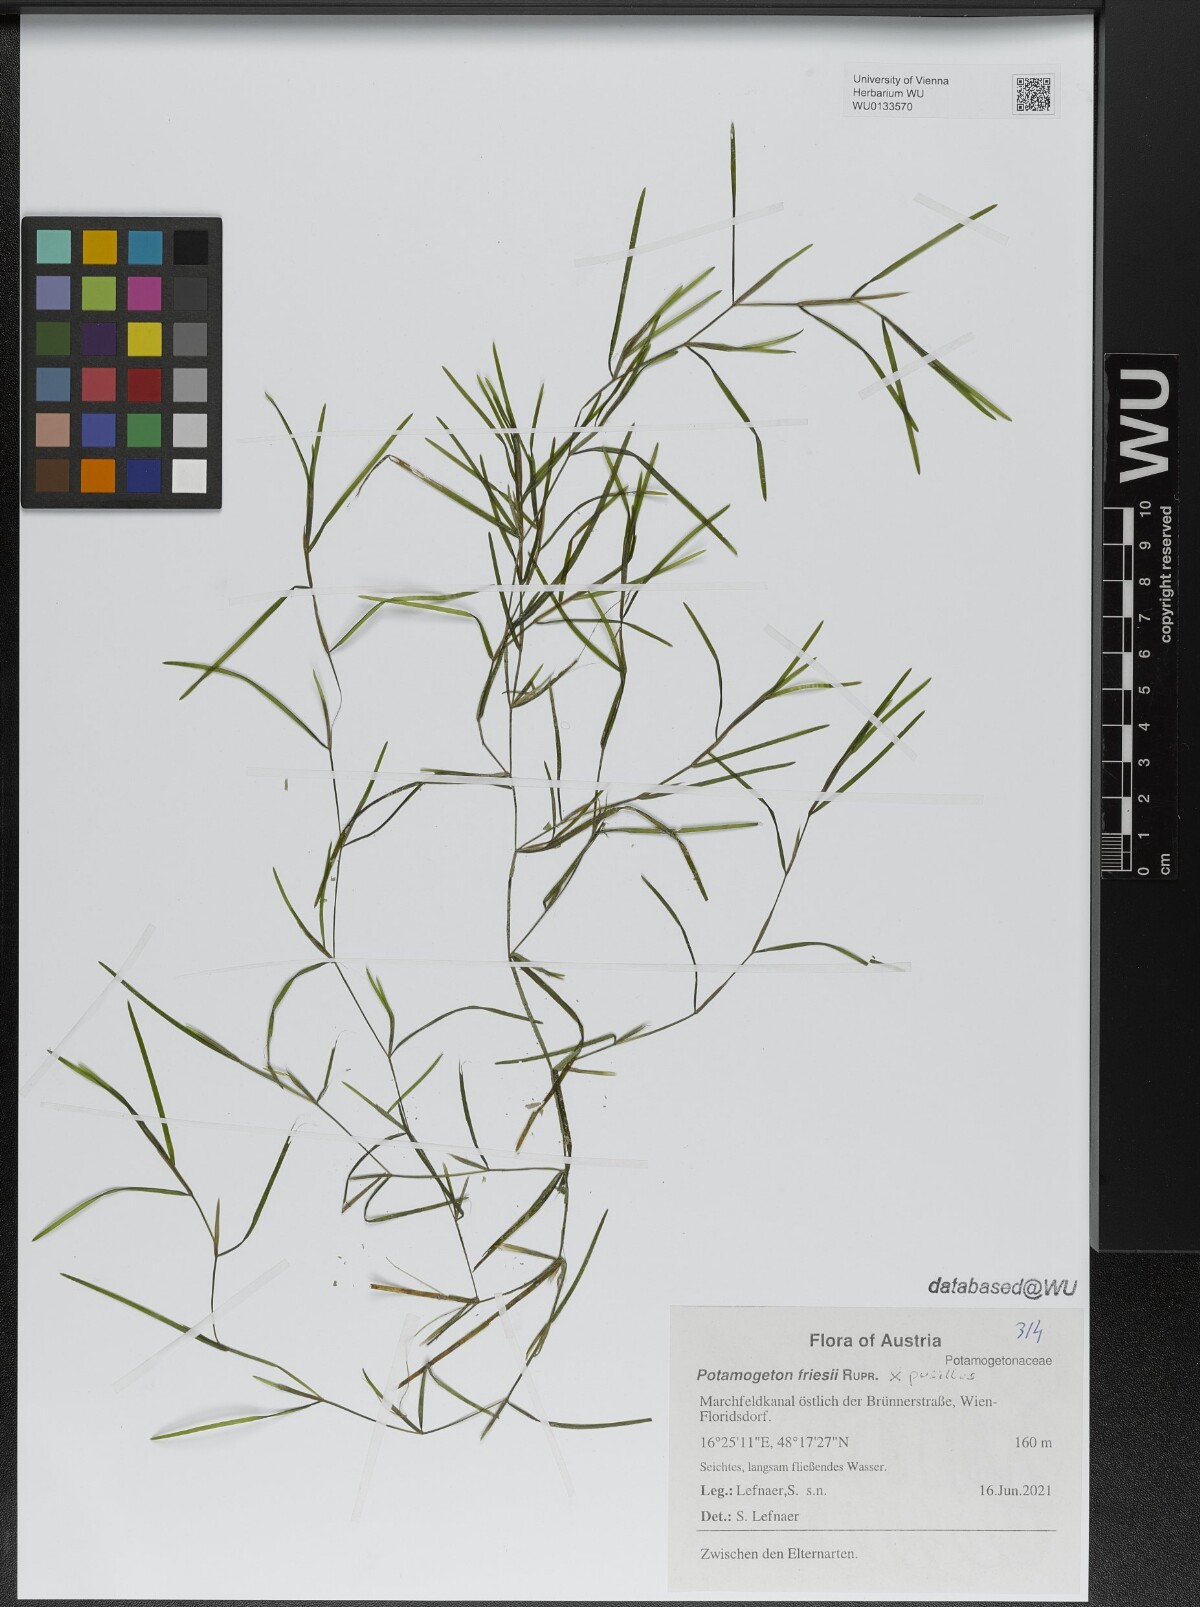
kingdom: Plantae
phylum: Tracheophyta
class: Liliopsida
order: Alismatales
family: Potamogetonaceae
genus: Potamogeton
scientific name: Potamogeton friesii
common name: Flat-stalked pondweed
